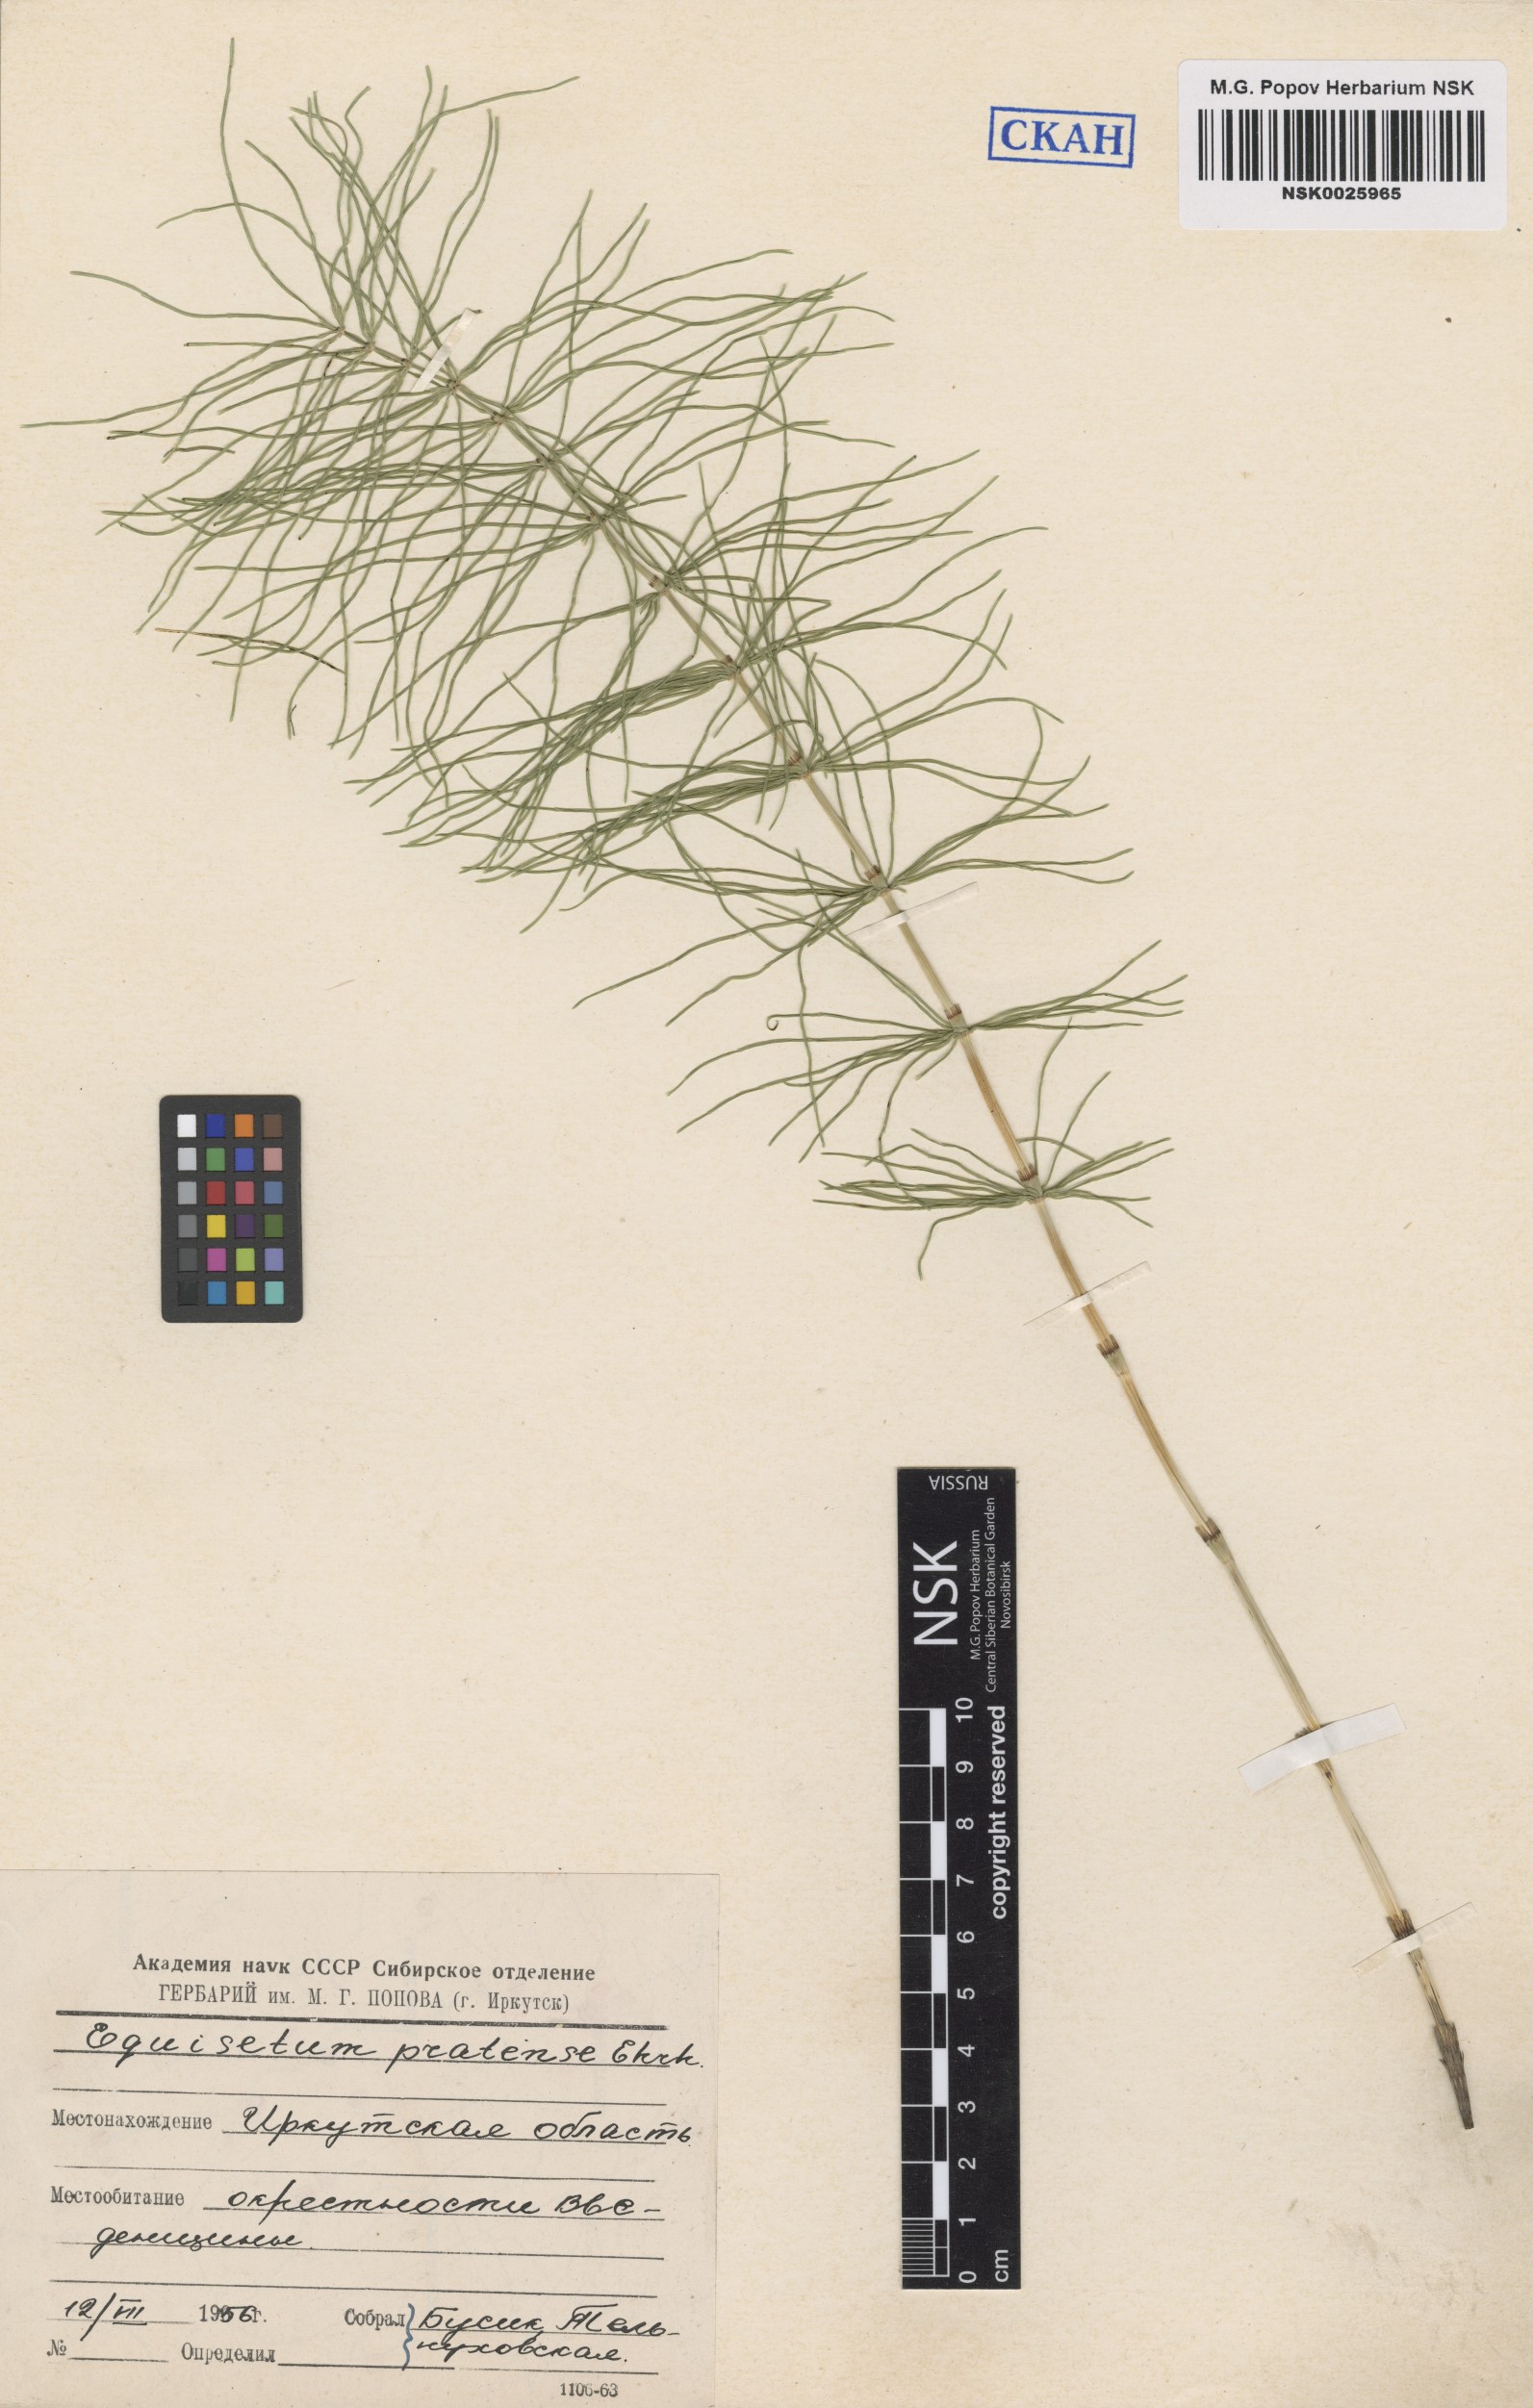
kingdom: Plantae
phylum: Tracheophyta
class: Polypodiopsida
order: Equisetales
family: Equisetaceae
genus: Equisetum
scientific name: Equisetum pratense
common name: Meadow horsetail
